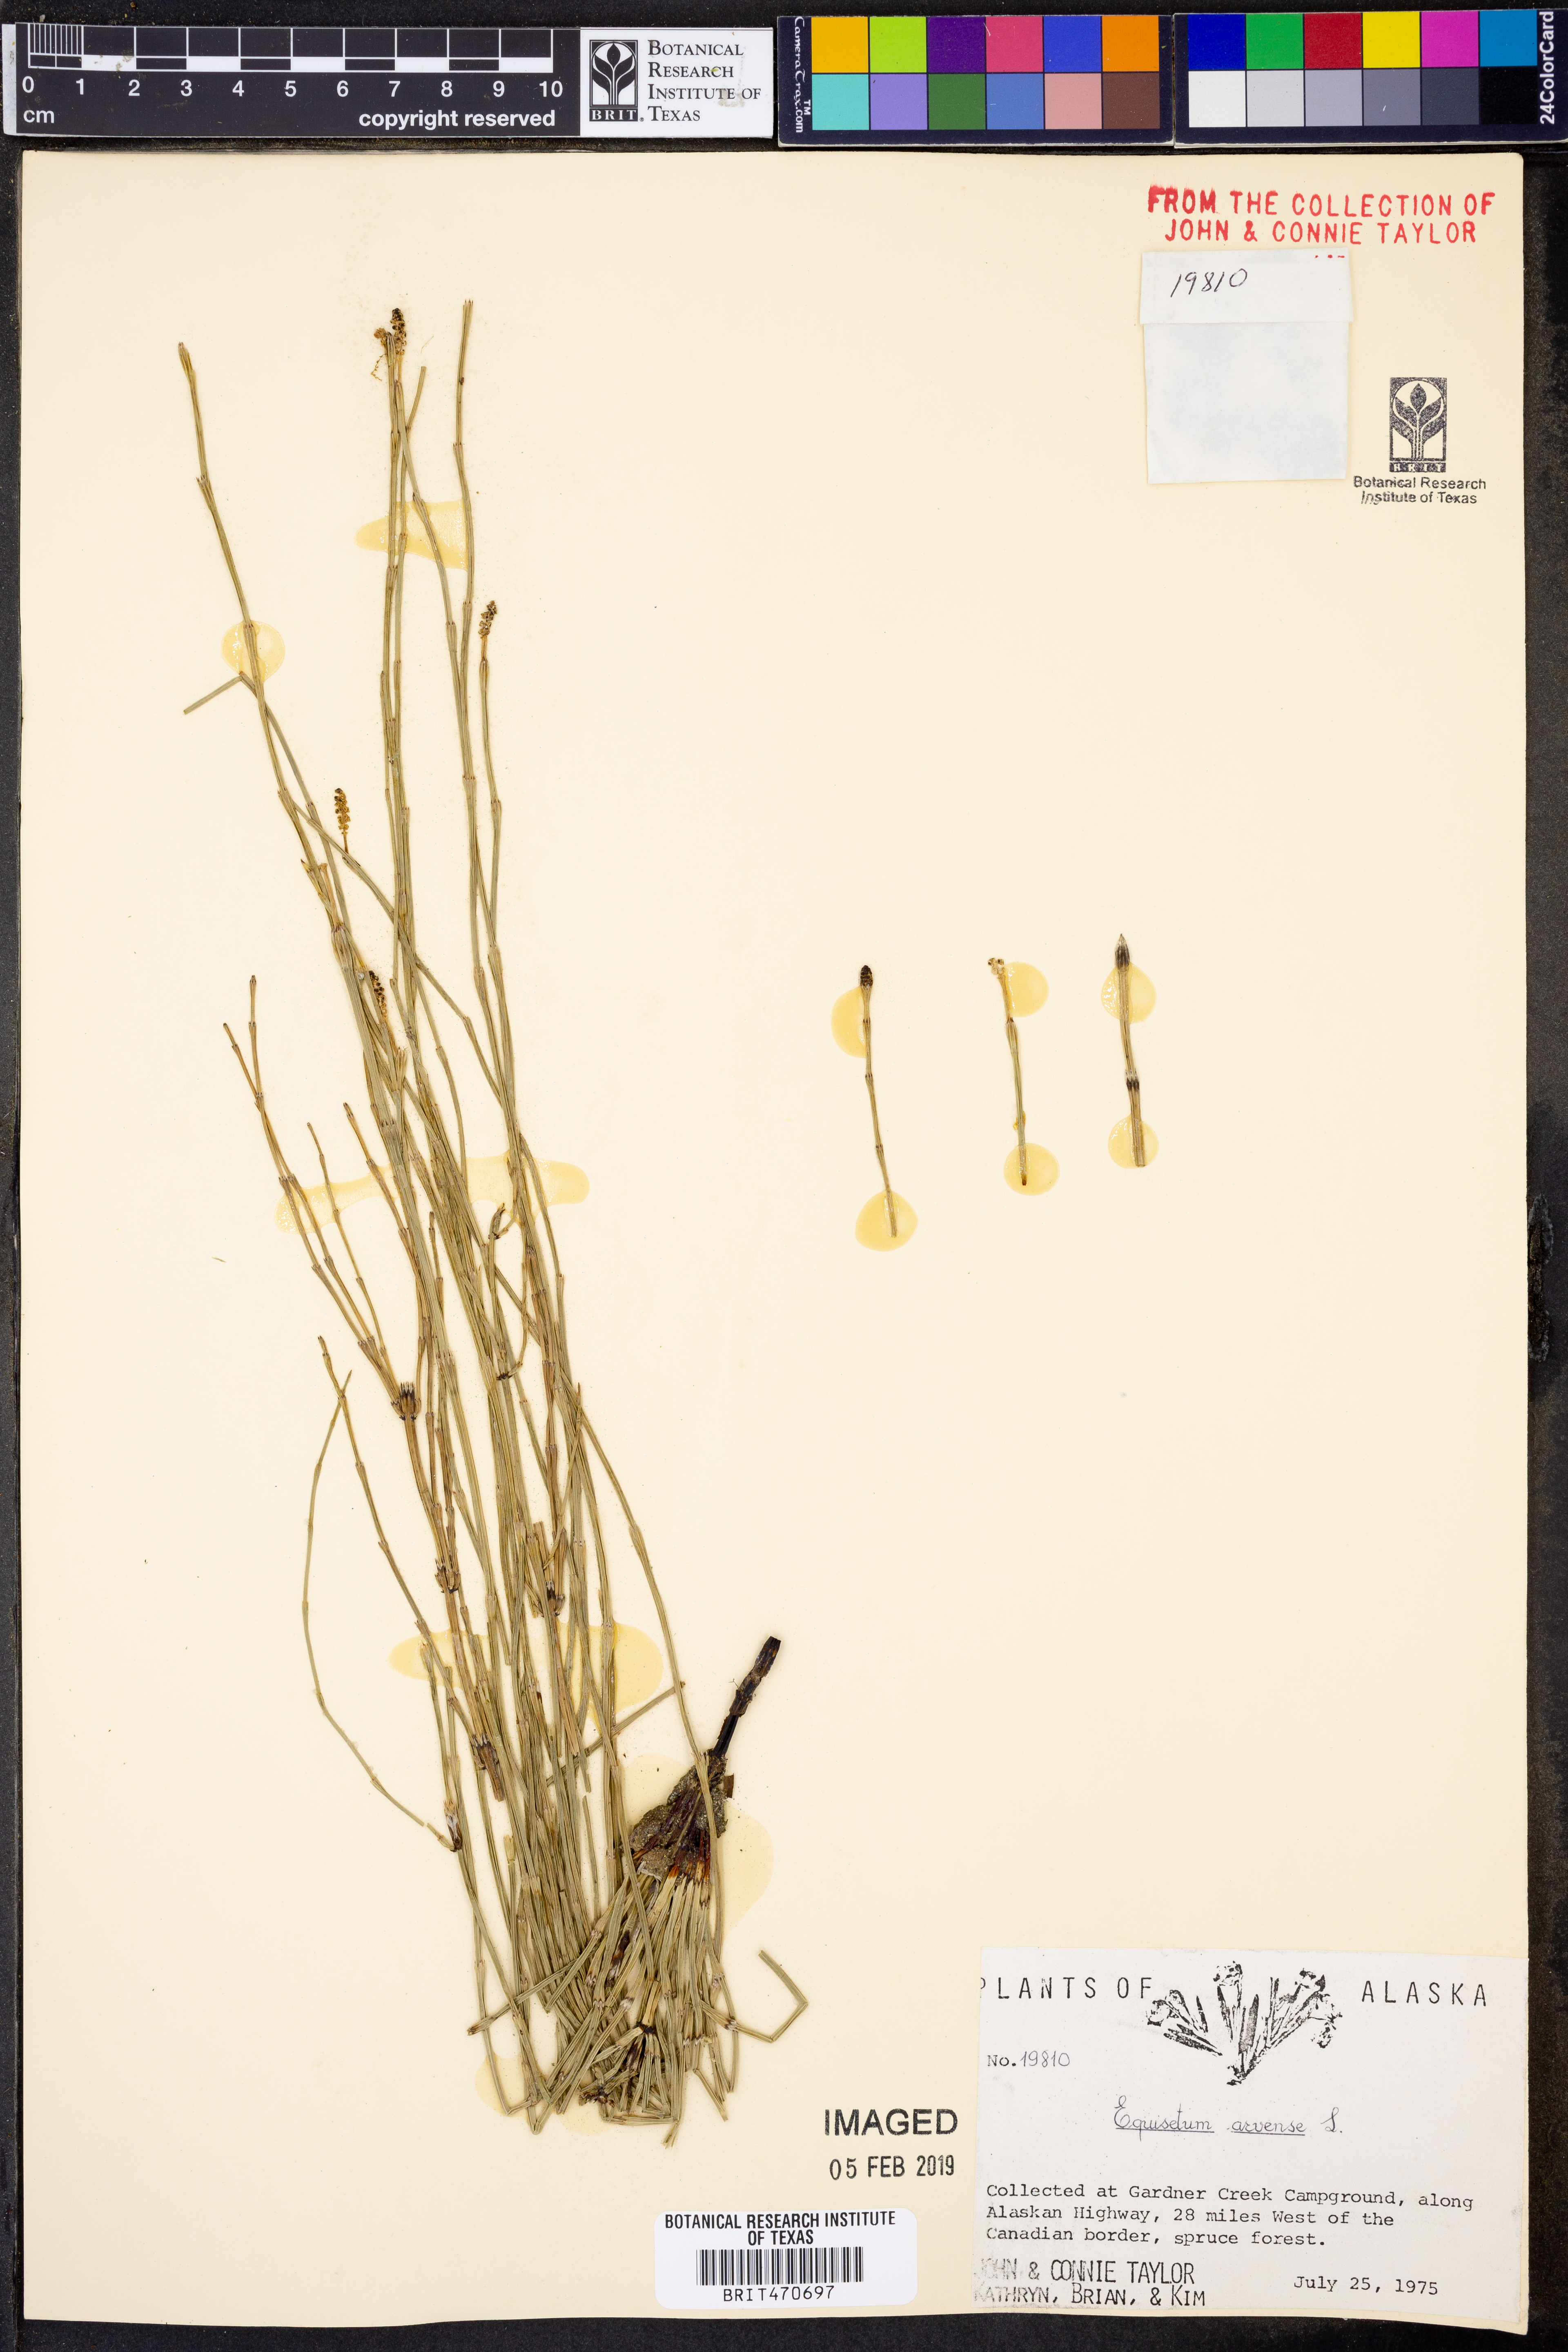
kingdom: Plantae
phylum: Tracheophyta
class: Polypodiopsida
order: Equisetales
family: Equisetaceae
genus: Equisetum
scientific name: Equisetum arvense
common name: Field horsetail
